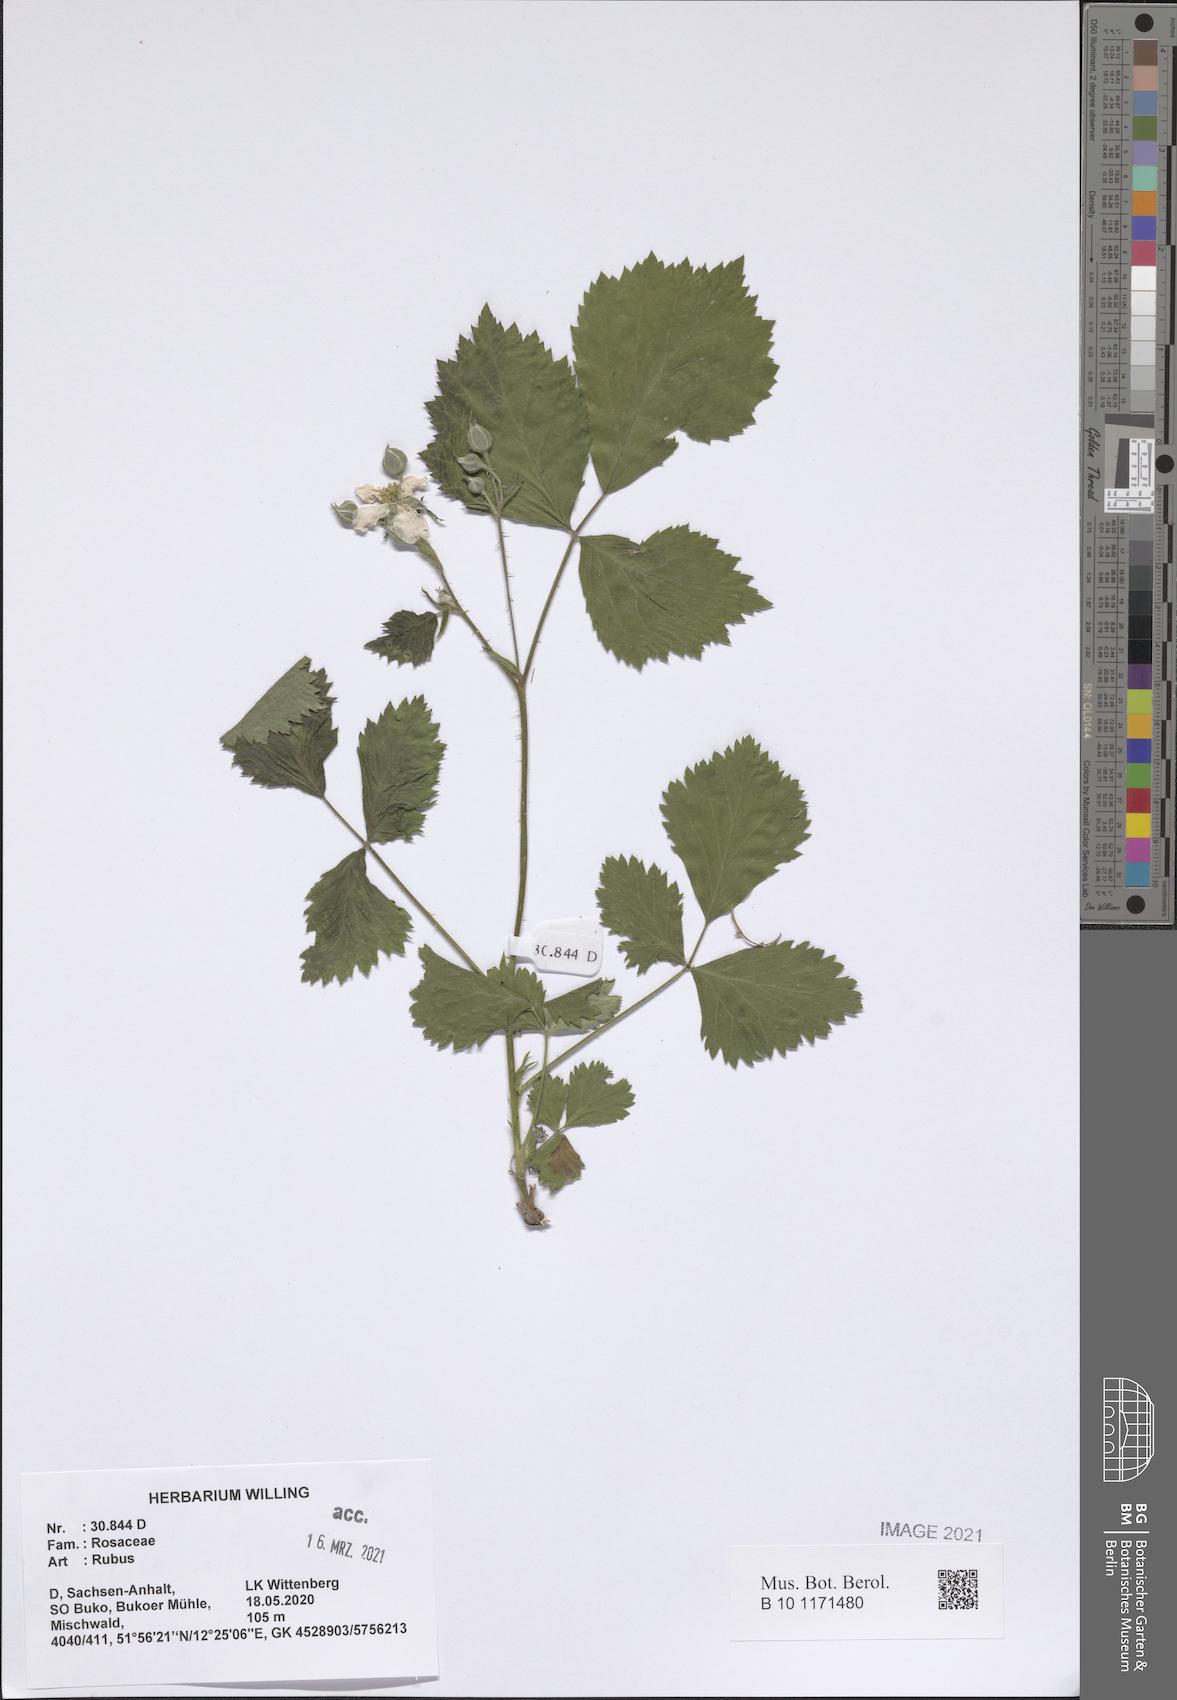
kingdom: Plantae
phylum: Tracheophyta
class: Magnoliopsida
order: Rosales
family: Rosaceae
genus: Rubus
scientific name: Rubus
